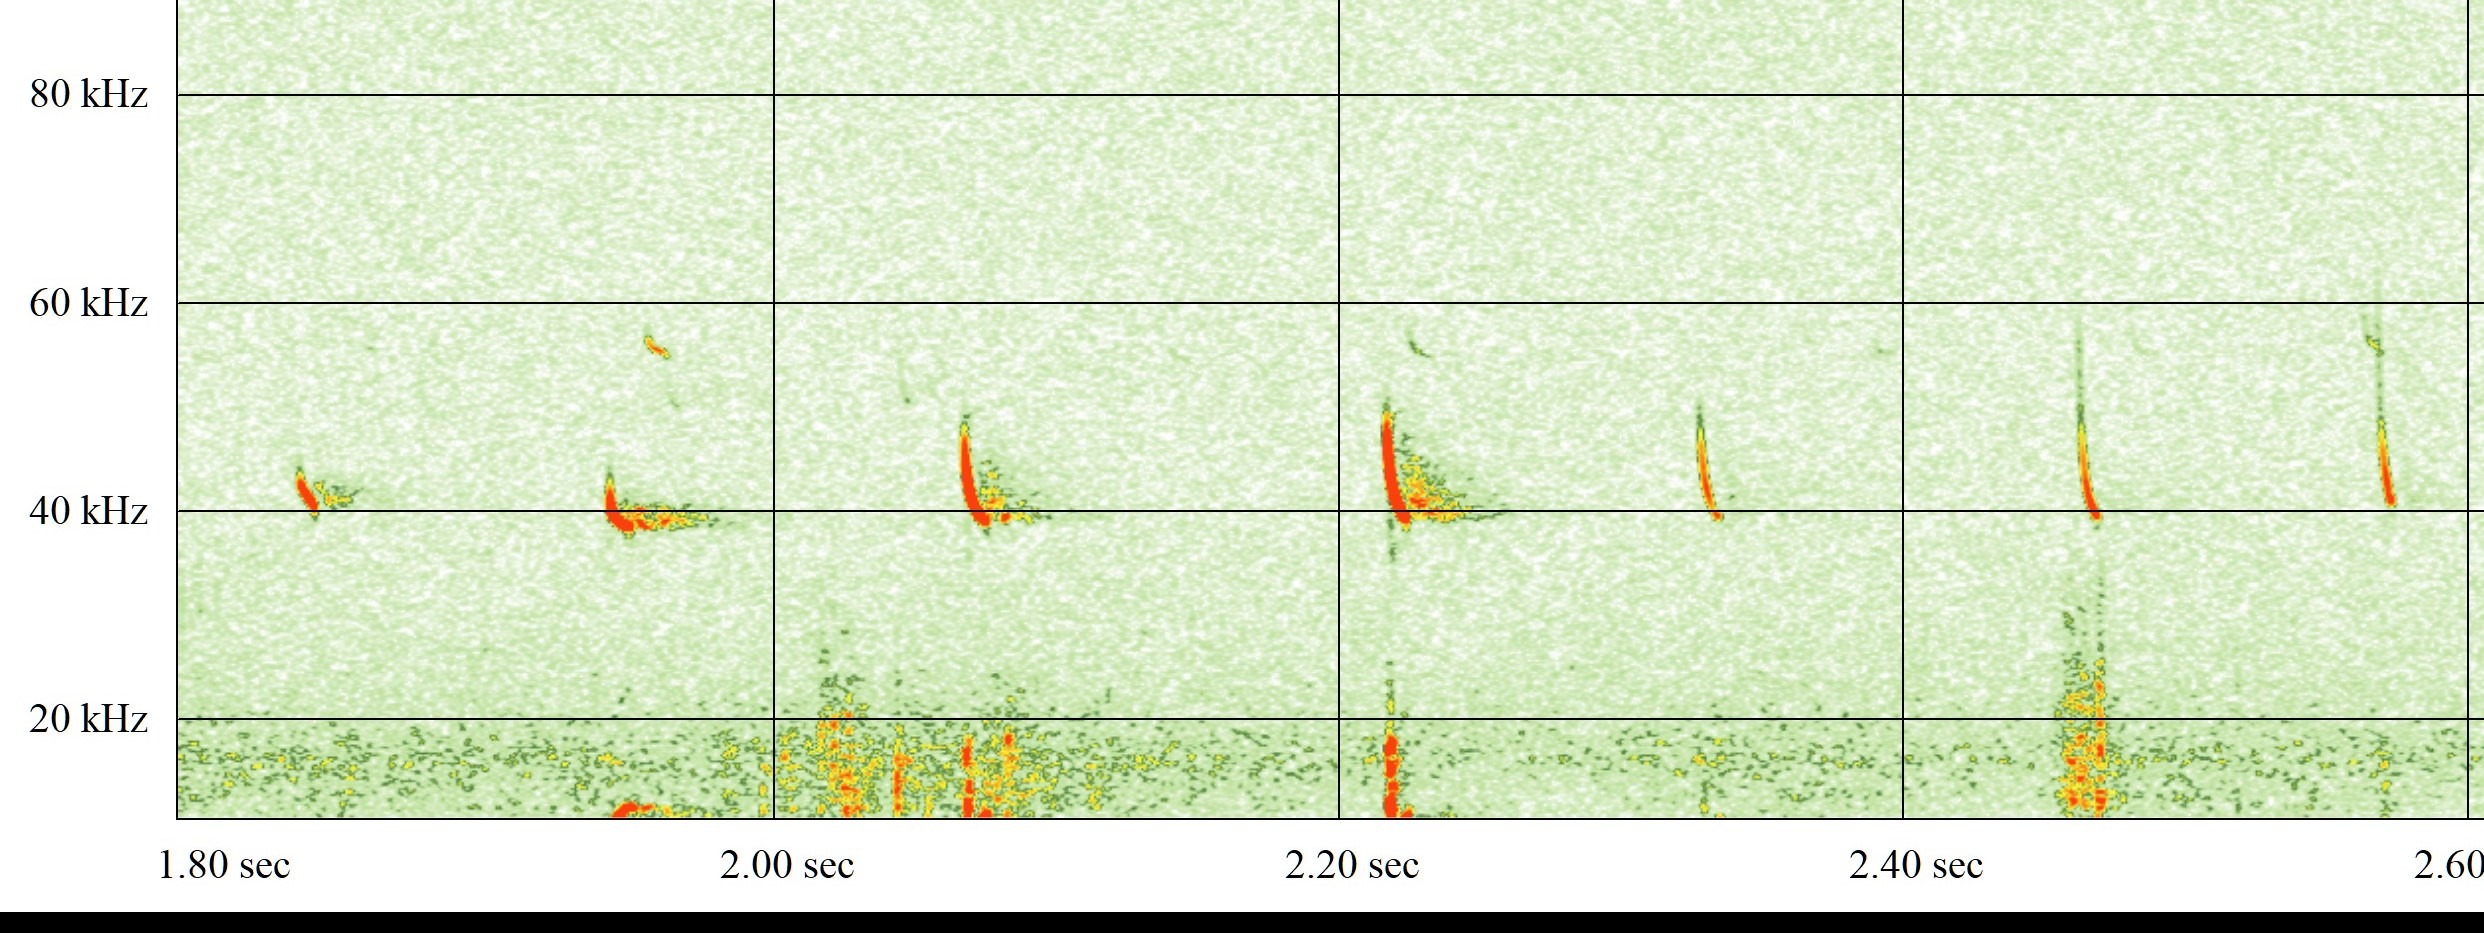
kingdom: Animalia
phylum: Chordata
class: Mammalia
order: Chiroptera
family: Vespertilionidae
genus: Pipistrellus
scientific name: Pipistrellus nathusii
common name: Troldflagermus
